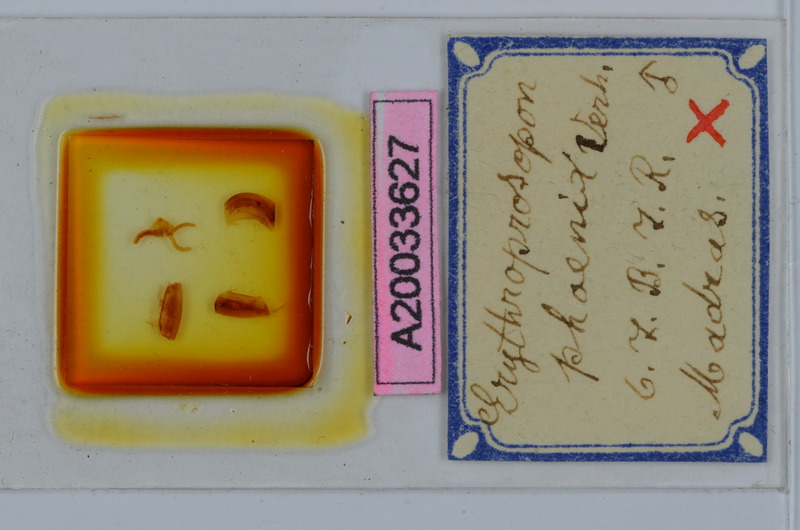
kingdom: Animalia
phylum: Arthropoda
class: Diplopoda
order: Spirobolida
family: Pachybolidae
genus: Erythroprosopon
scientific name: Erythroprosopon phoenix
